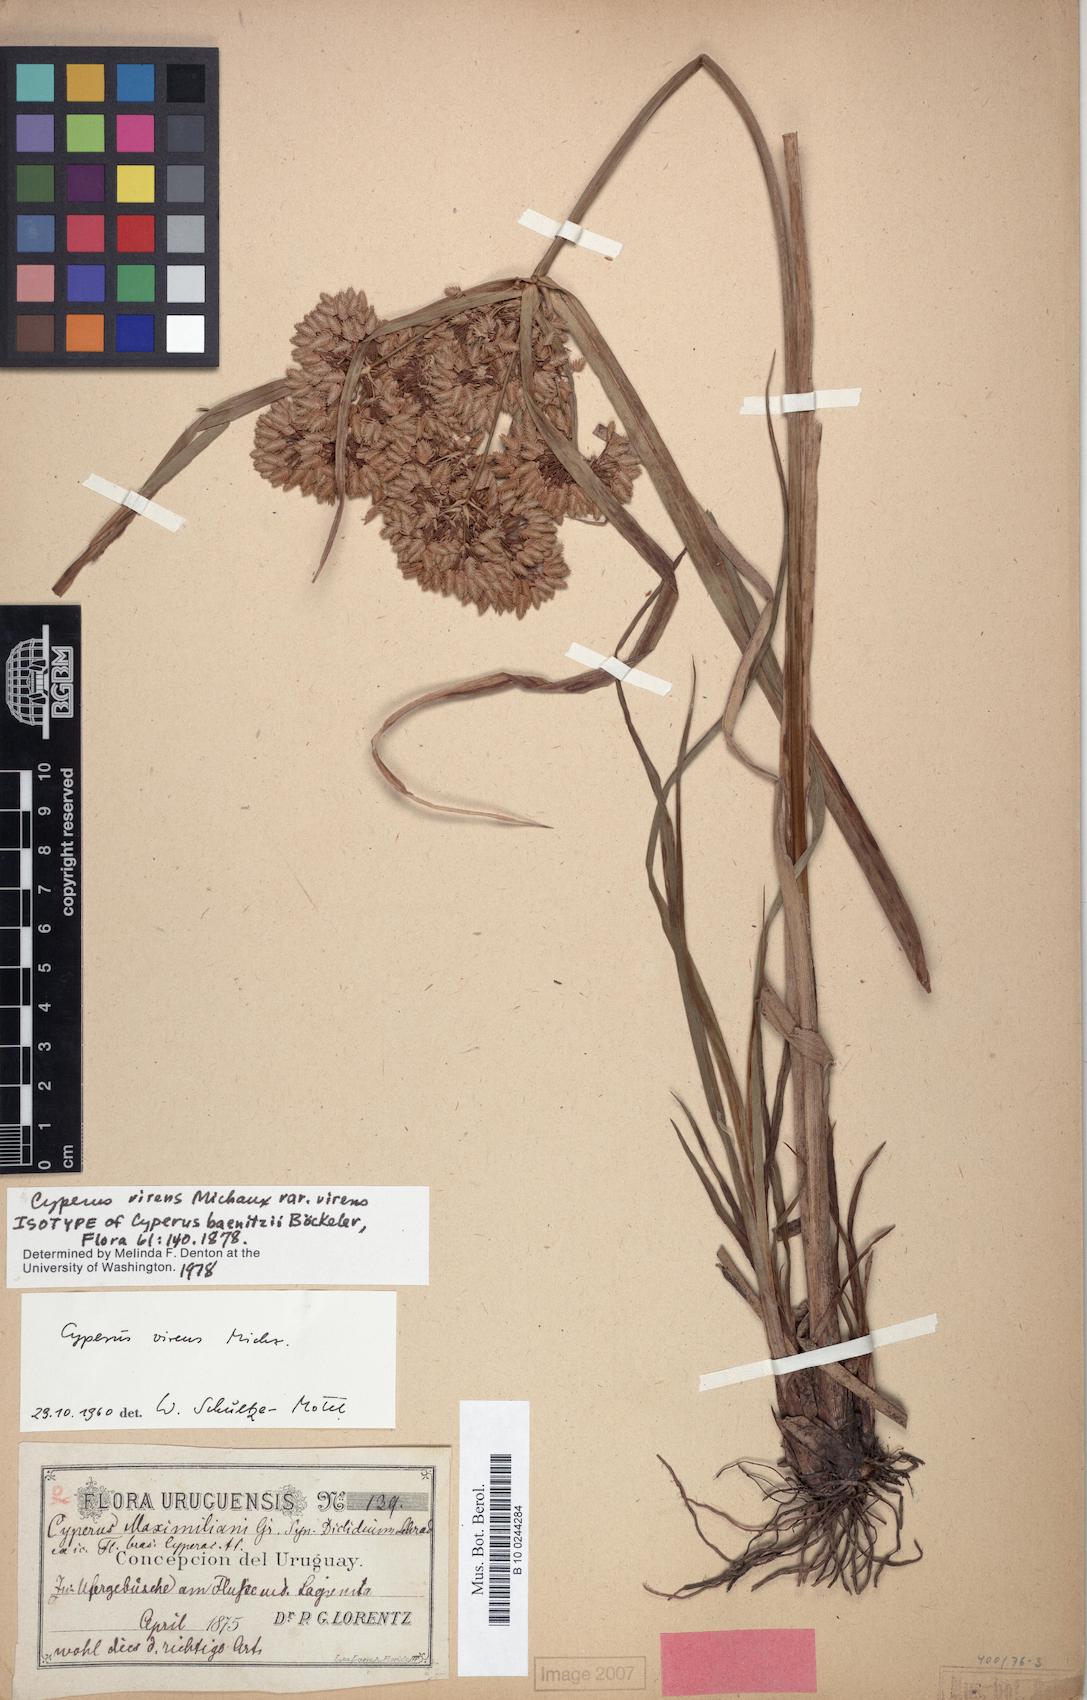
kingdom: Plantae
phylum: Tracheophyta
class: Liliopsida
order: Poales
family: Cyperaceae
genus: Cyperus
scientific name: Cyperus virens
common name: Green flatsedge
